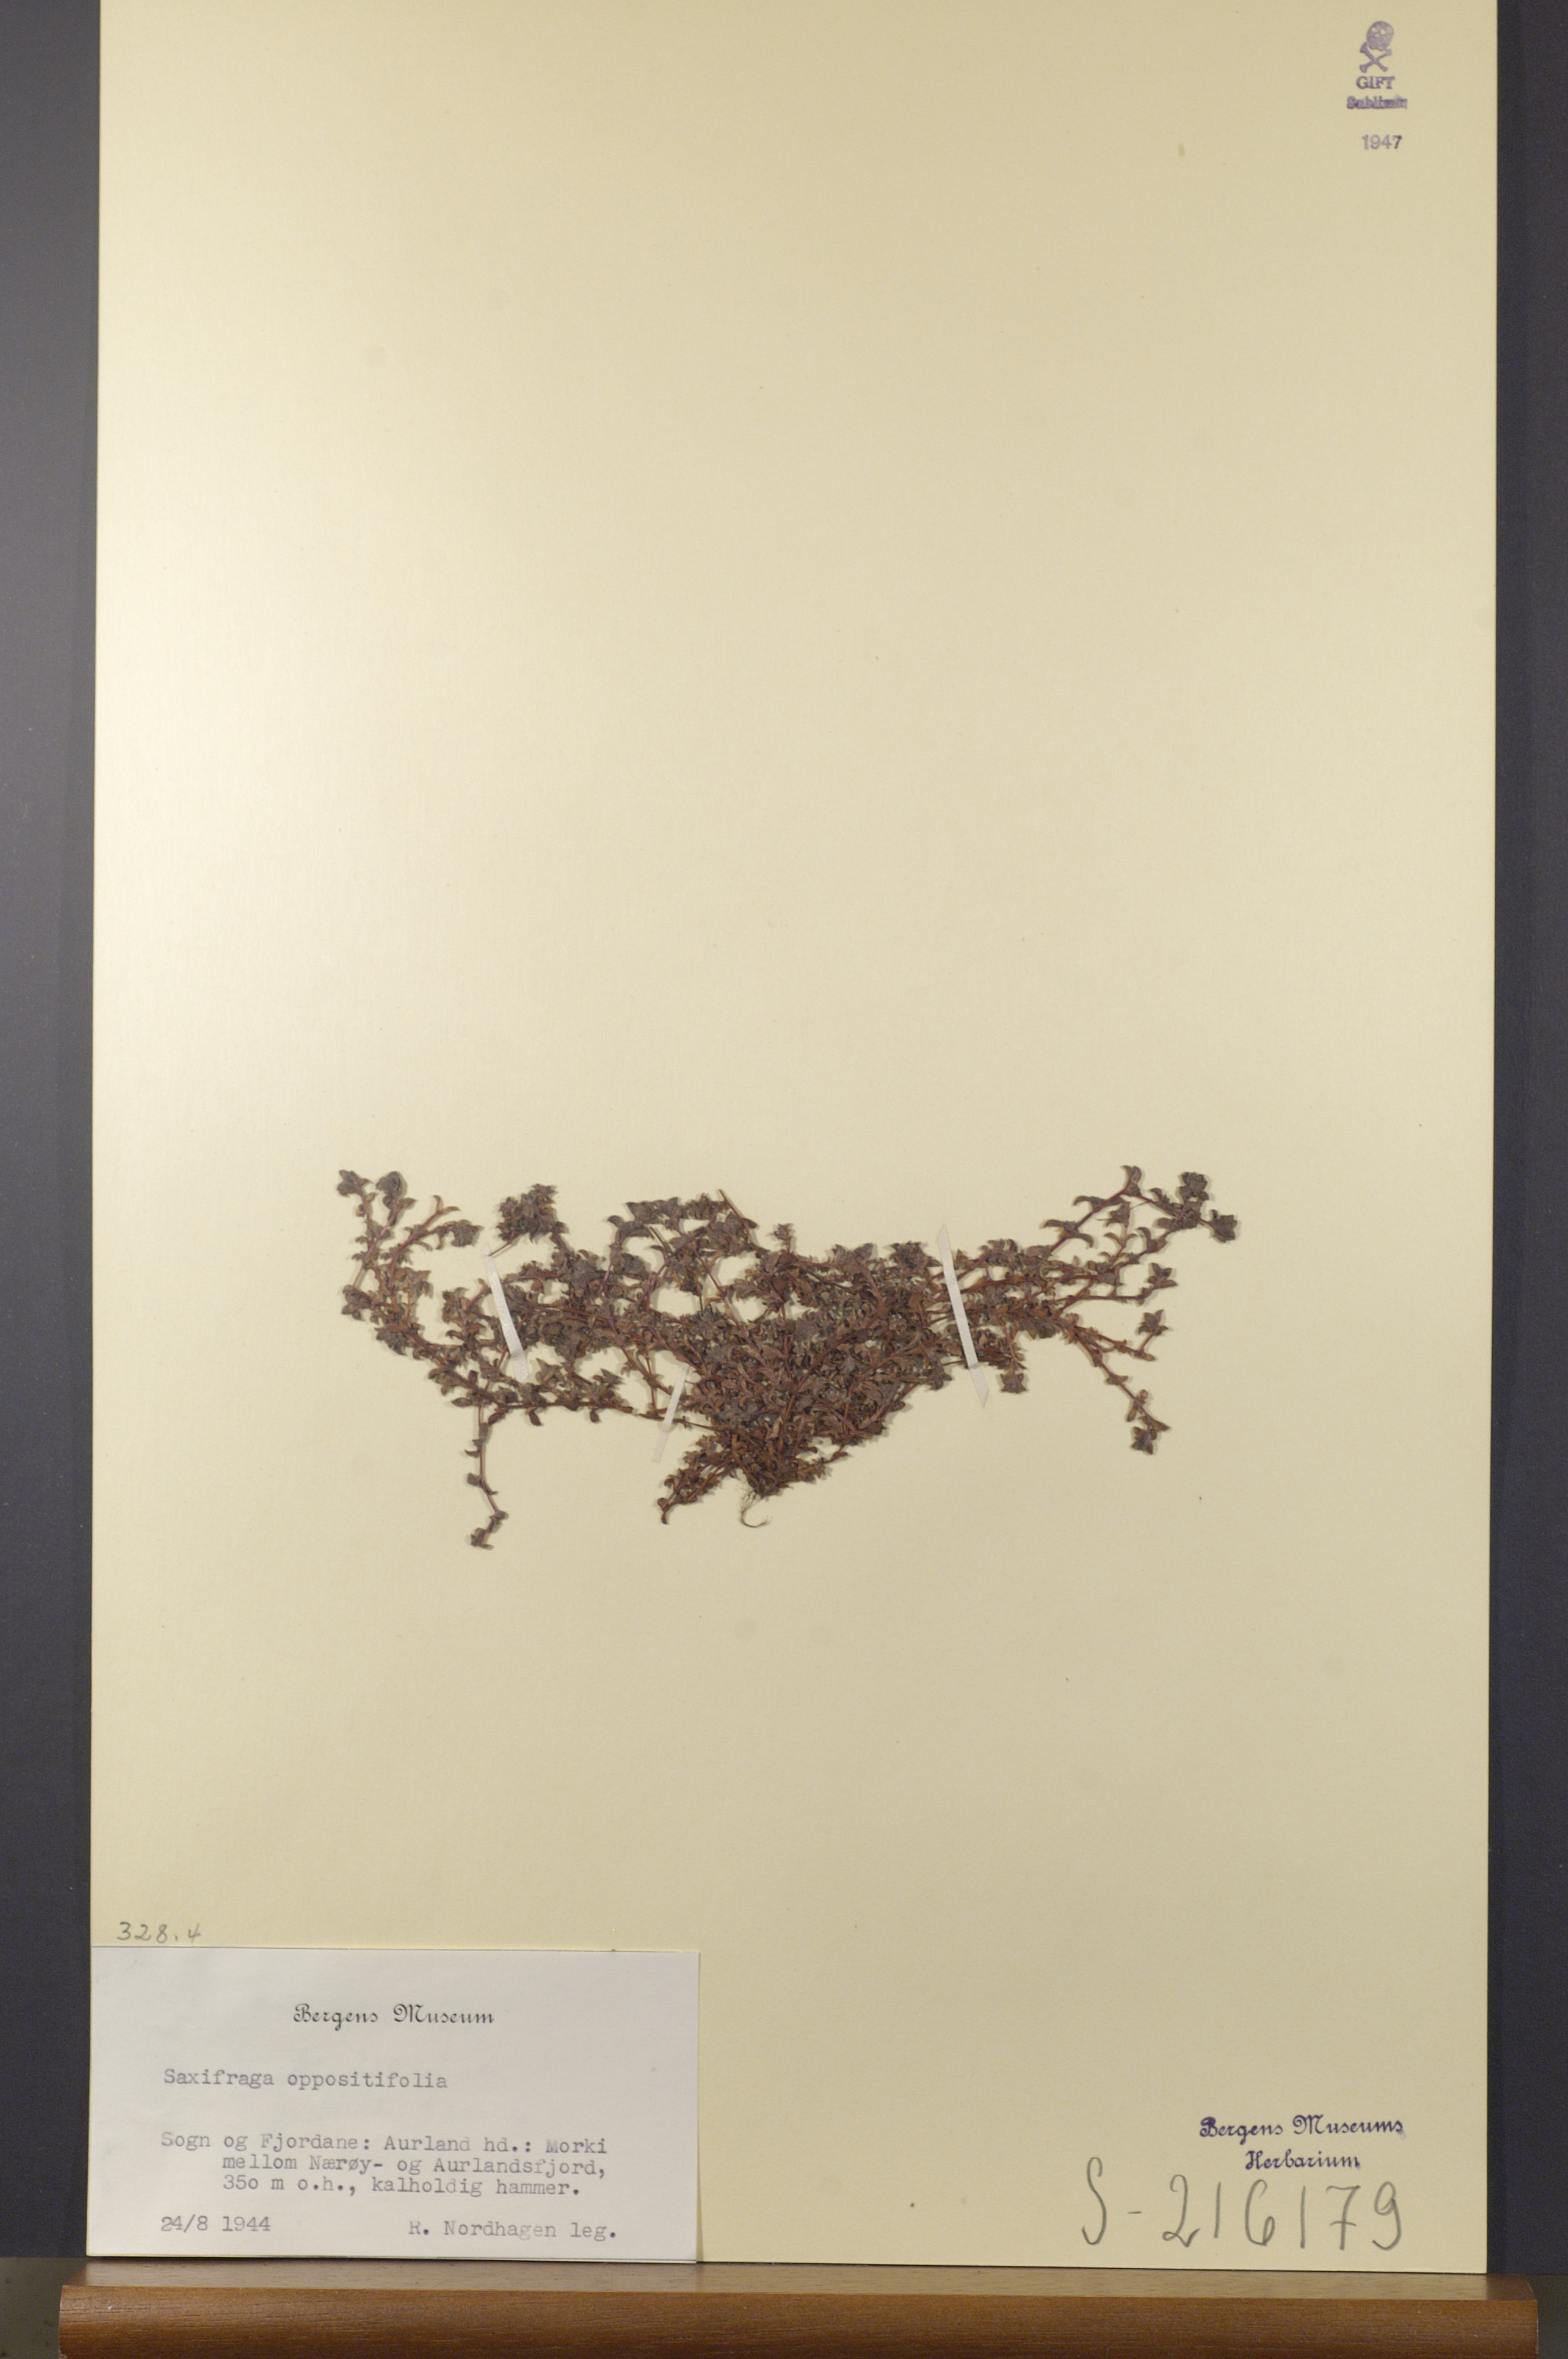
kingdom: Plantae
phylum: Tracheophyta
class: Magnoliopsida
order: Saxifragales
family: Saxifragaceae
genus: Saxifraga
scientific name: Saxifraga oppositifolia
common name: Purple saxifrage
